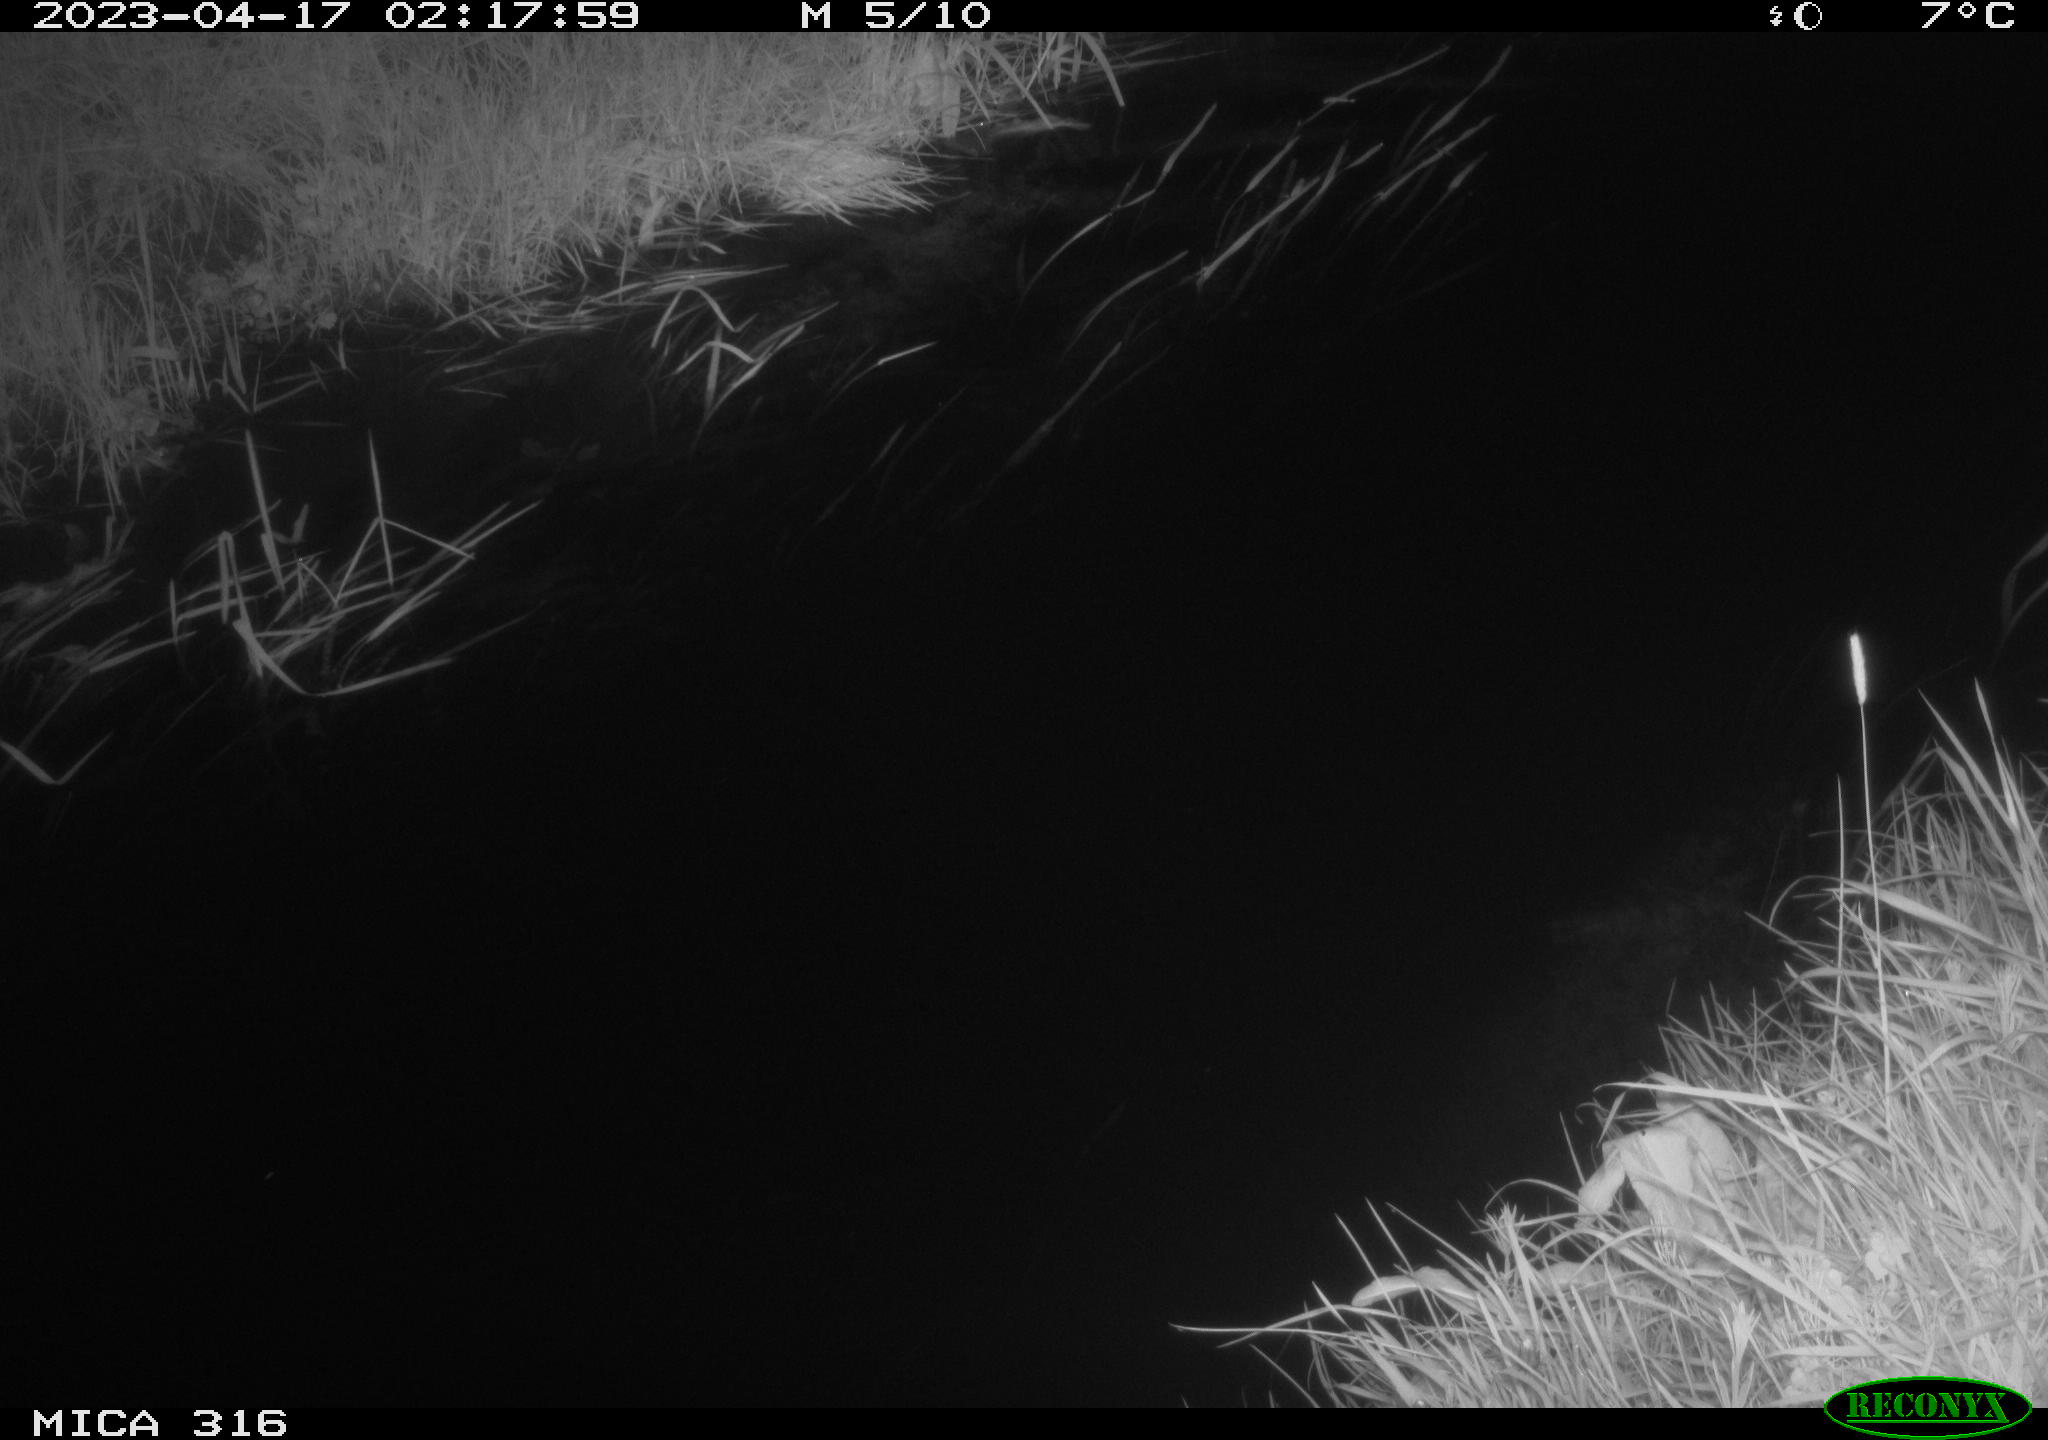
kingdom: Animalia
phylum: Chordata
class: Aves
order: Anseriformes
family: Anatidae
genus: Anas
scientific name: Anas
